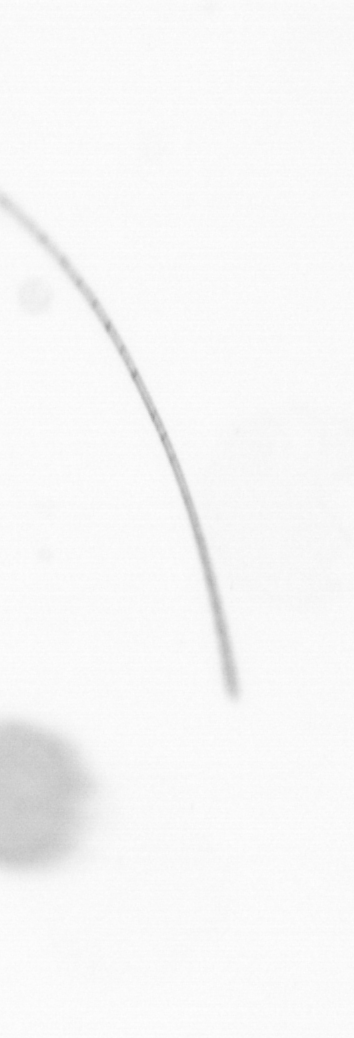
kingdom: Chromista
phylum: Ochrophyta
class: Bacillariophyceae
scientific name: Bacillariophyceae
